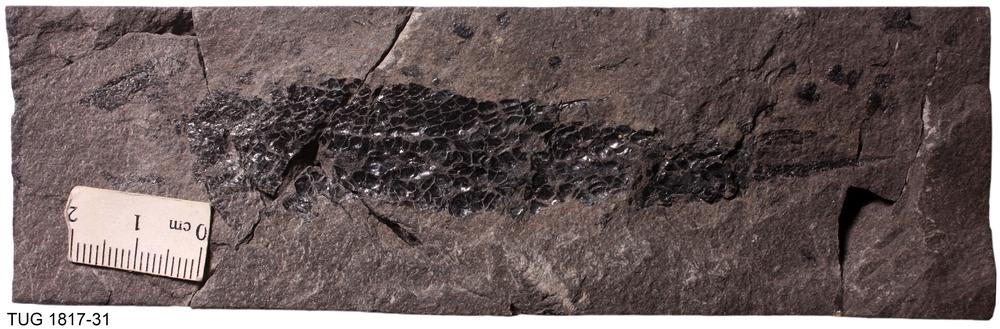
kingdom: Animalia
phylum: Chordata
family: Osteolepididae
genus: Osteolepis
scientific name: Osteolepis panderi
